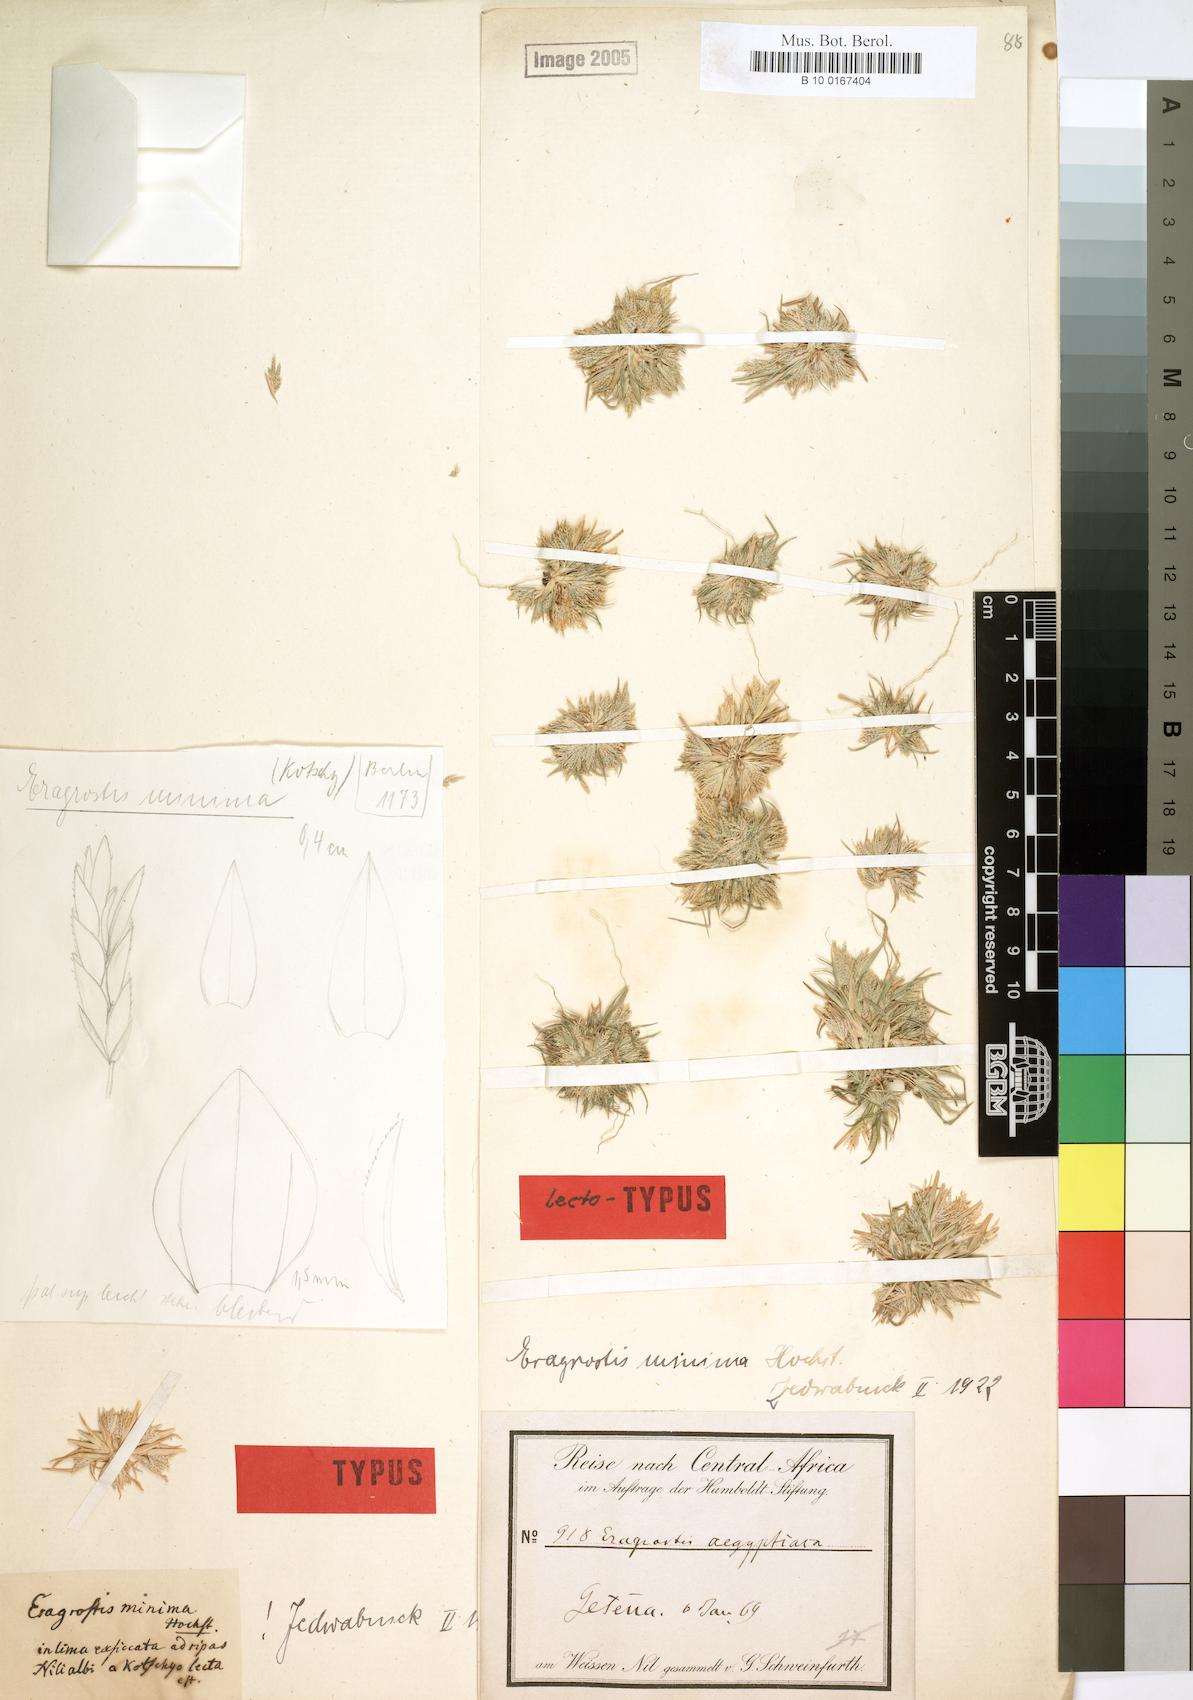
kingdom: Plantae
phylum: Tracheophyta
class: Liliopsida
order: Poales
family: Poaceae
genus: Eragrostis
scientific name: Eragrostis aegyptiaca
